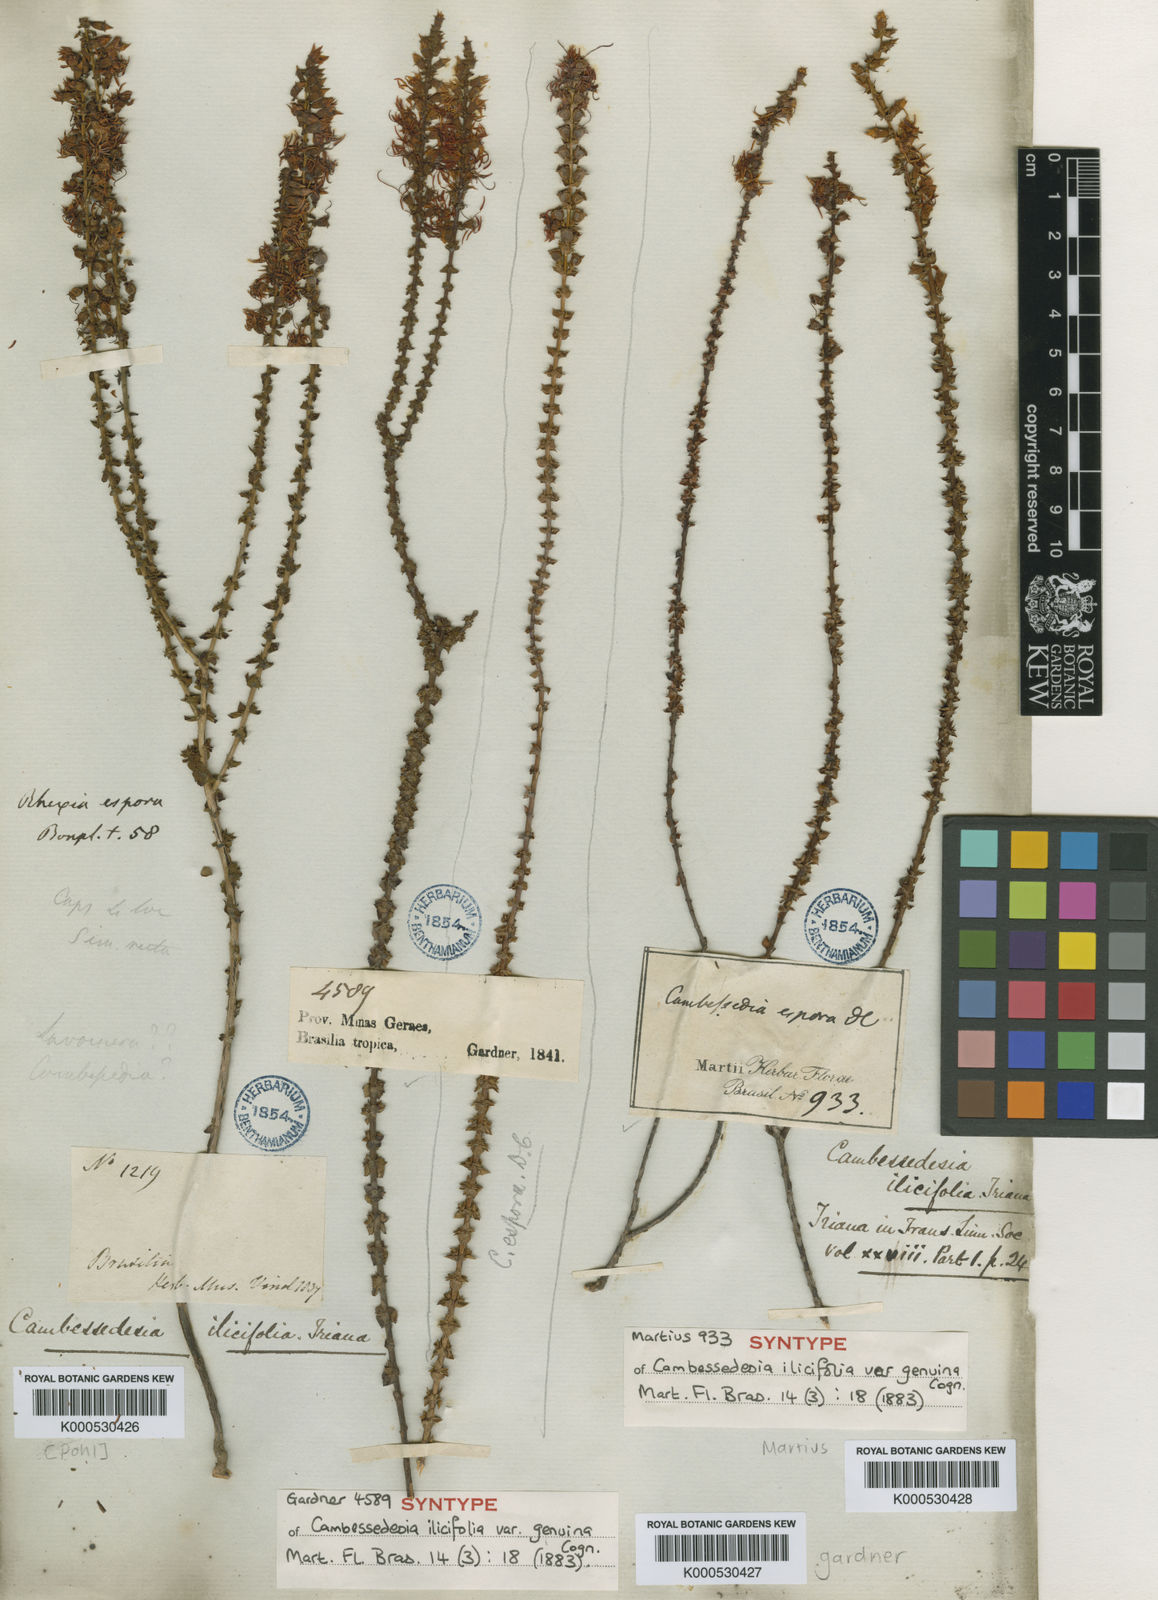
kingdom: Plantae
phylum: Tracheophyta
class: Magnoliopsida
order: Myrtales
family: Melastomataceae
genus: Cambessedesia
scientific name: Cambessedesia espora
